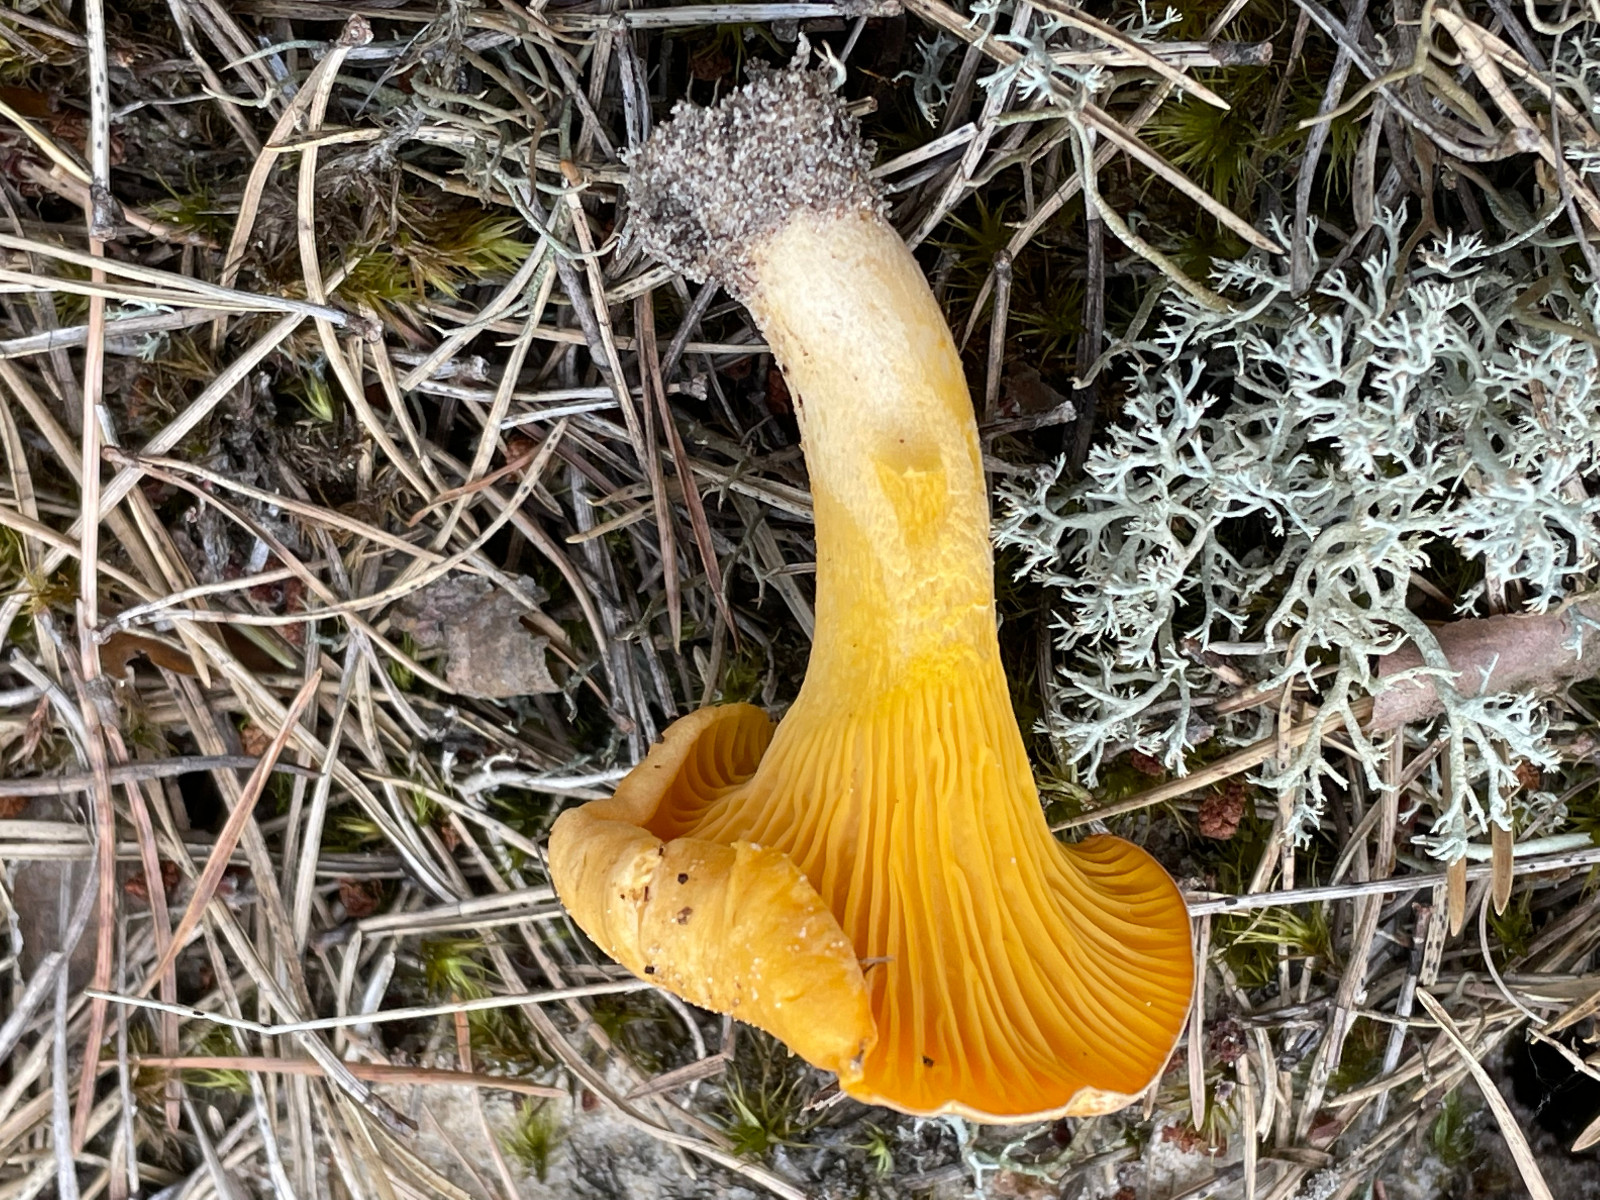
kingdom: Fungi
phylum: Basidiomycota
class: Agaricomycetes
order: Cantharellales
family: Hydnaceae
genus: Cantharellus
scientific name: Cantharellus cibarius
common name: almindelig kantarel
